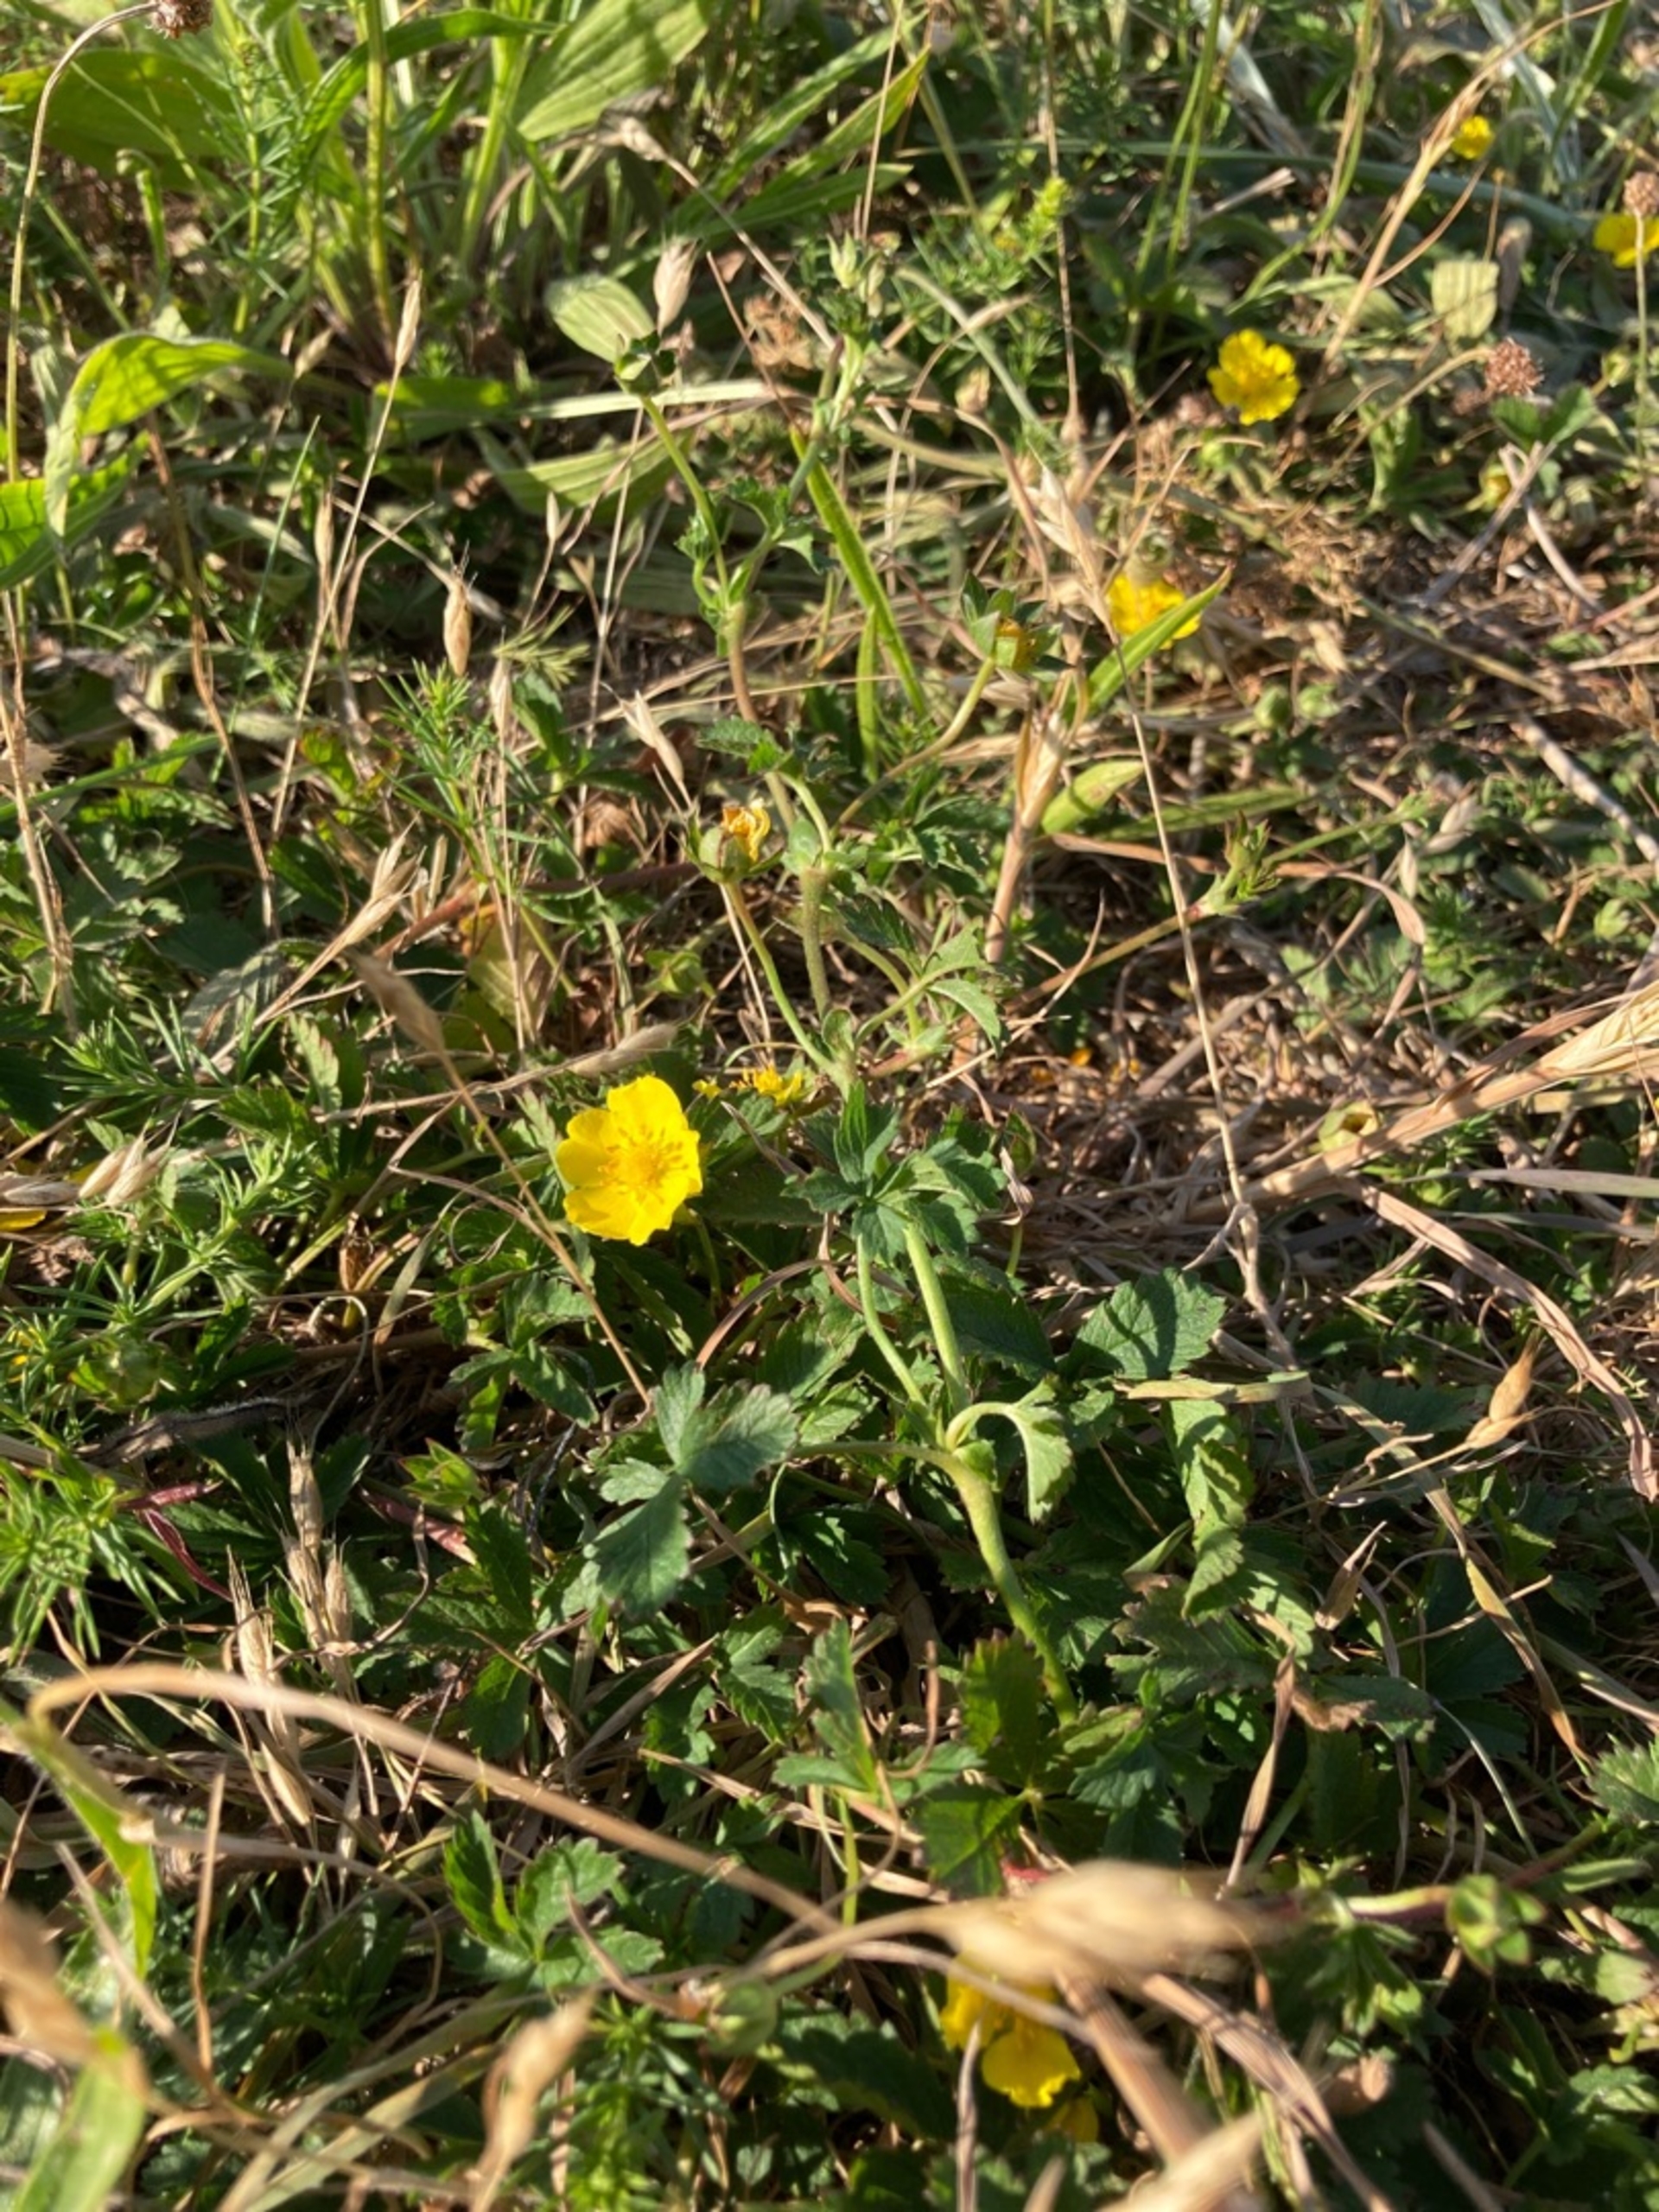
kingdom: Plantae
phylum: Tracheophyta
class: Magnoliopsida
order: Rosales
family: Rosaceae
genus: Potentilla
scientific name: Potentilla reptans
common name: Krybende potentil
